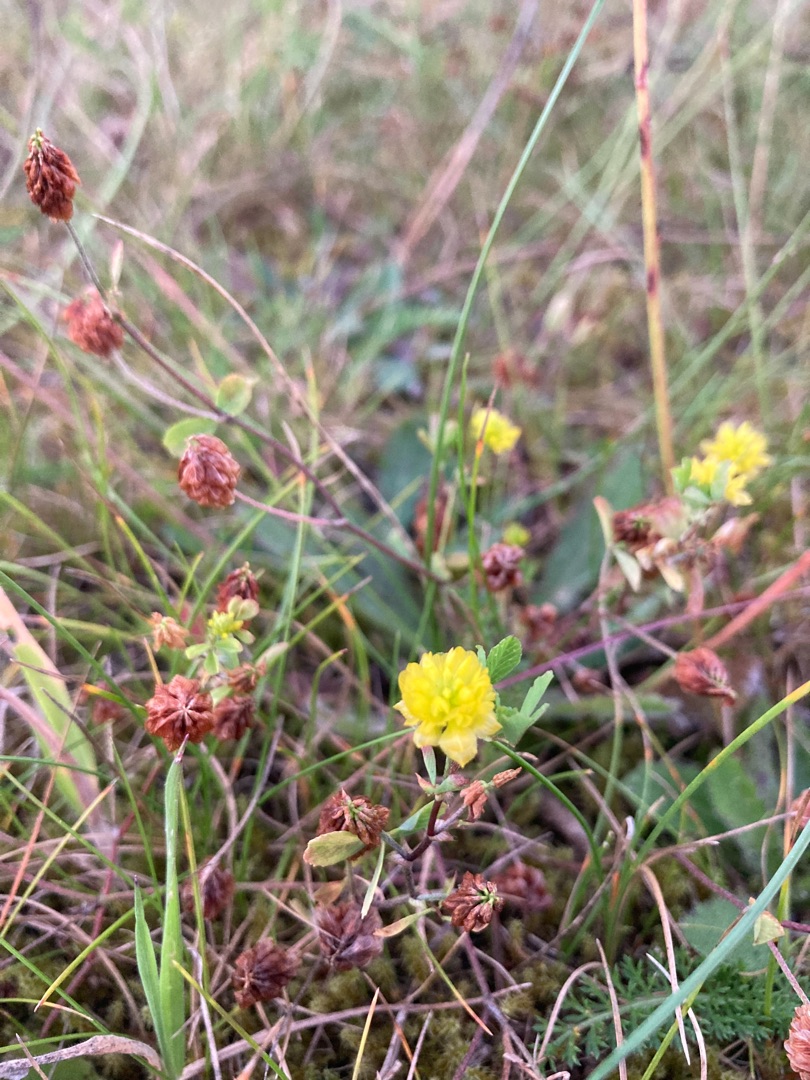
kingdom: Plantae
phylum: Tracheophyta
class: Magnoliopsida
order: Fabales
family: Fabaceae
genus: Trifolium
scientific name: Trifolium campestre
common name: Gul kløver
